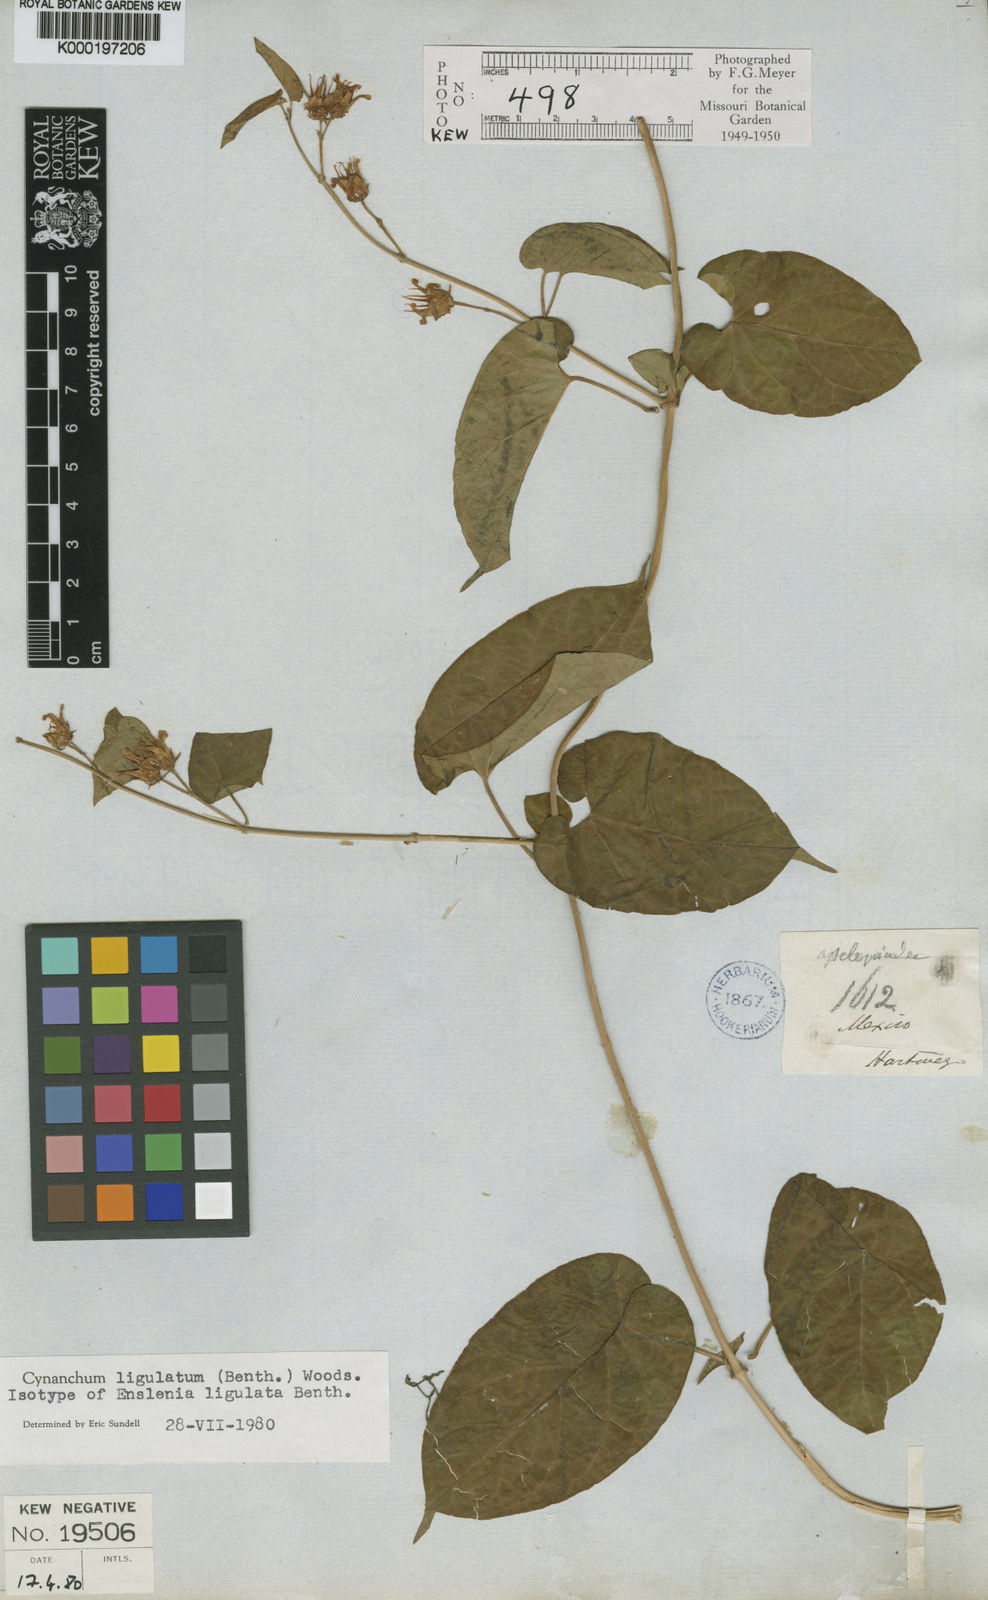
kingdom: Plantae
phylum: Tracheophyta
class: Magnoliopsida
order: Gentianales
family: Apocynaceae
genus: Cynanchum
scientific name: Cynanchum ligulatum
